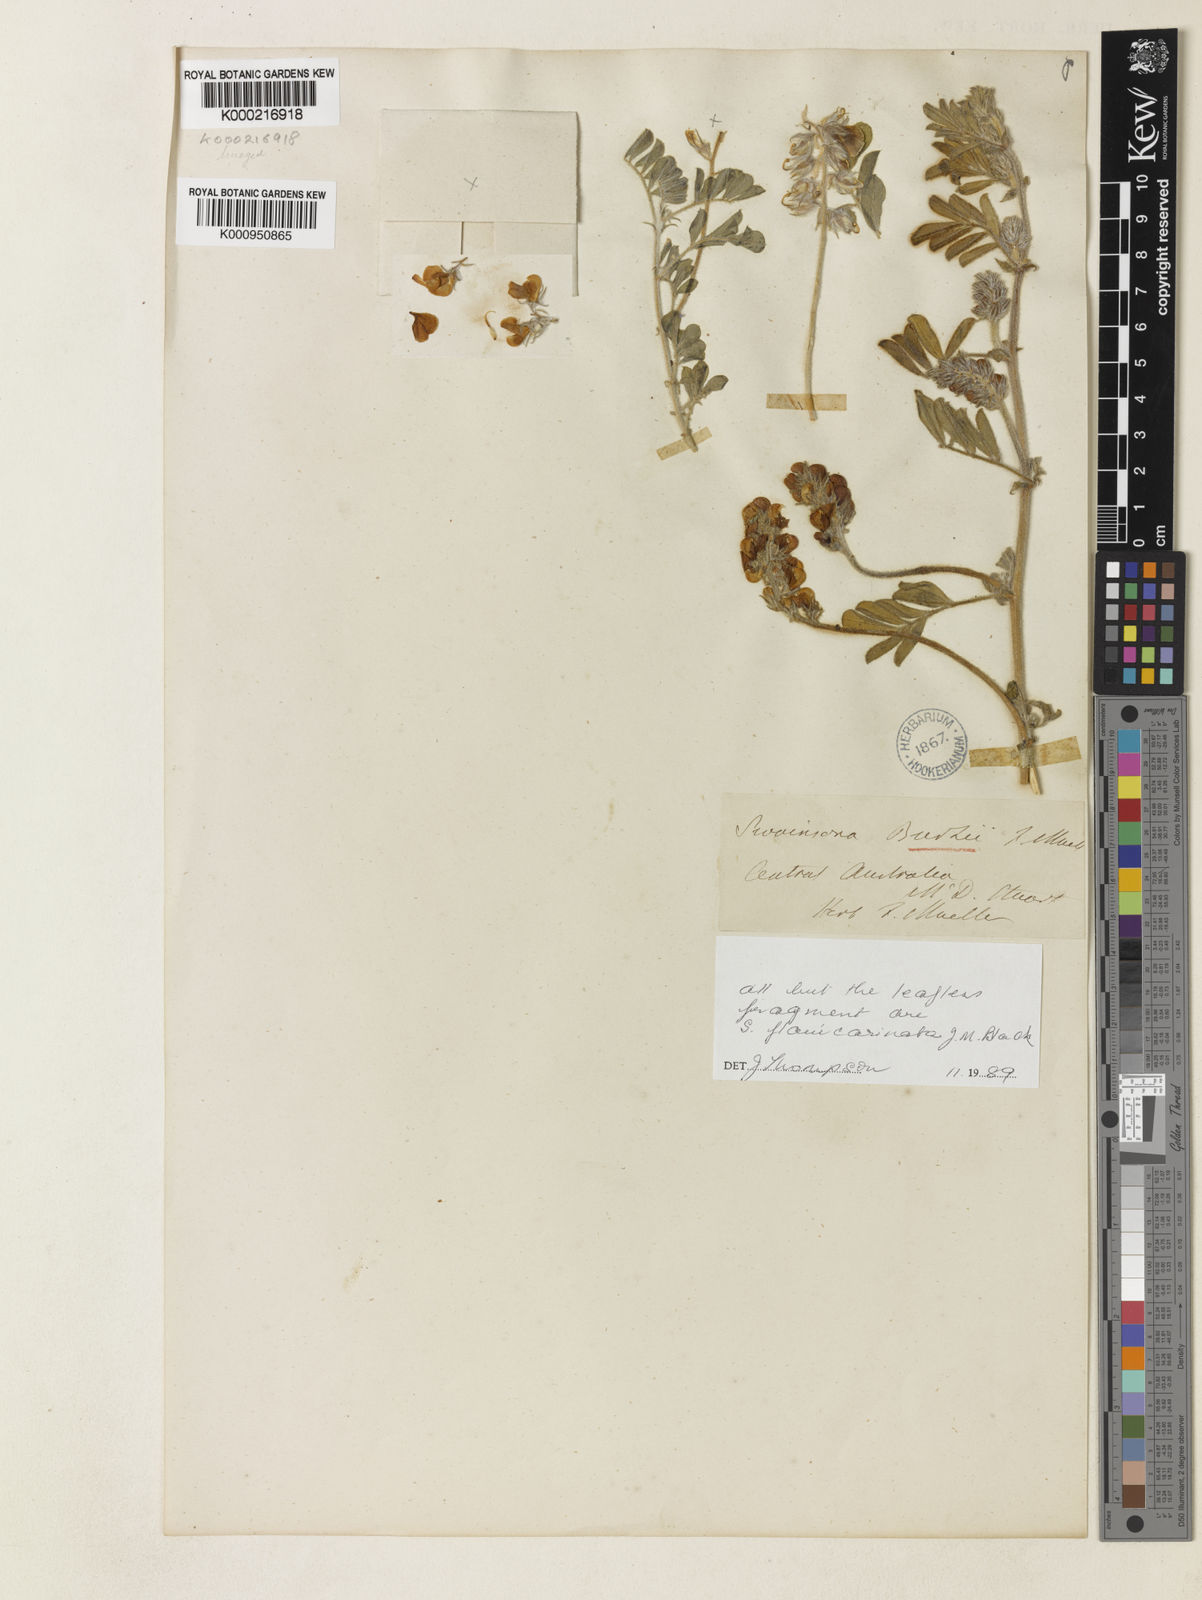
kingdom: Plantae
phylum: Tracheophyta
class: Magnoliopsida
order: Fabales
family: Fabaceae
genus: Swainsona
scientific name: Swainsona
